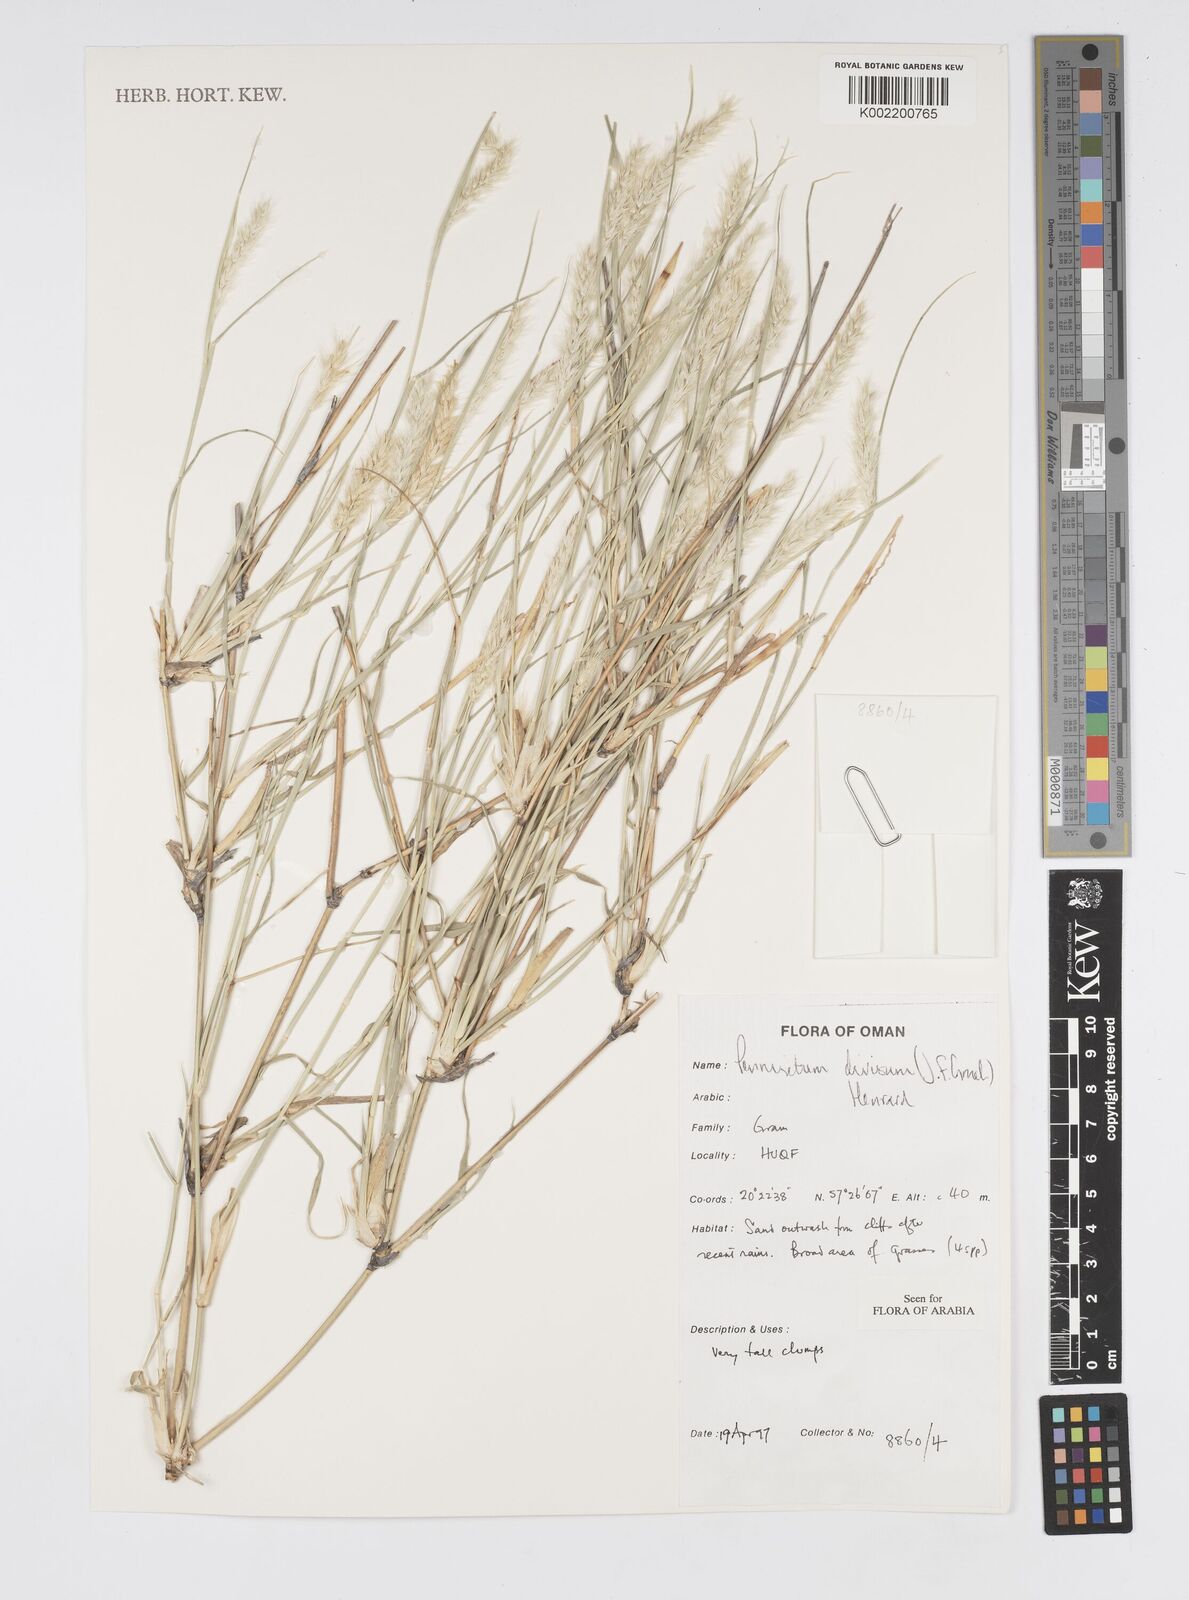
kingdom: Plantae
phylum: Tracheophyta
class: Liliopsida
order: Poales
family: Poaceae
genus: Cenchrus
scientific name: Cenchrus divisus
